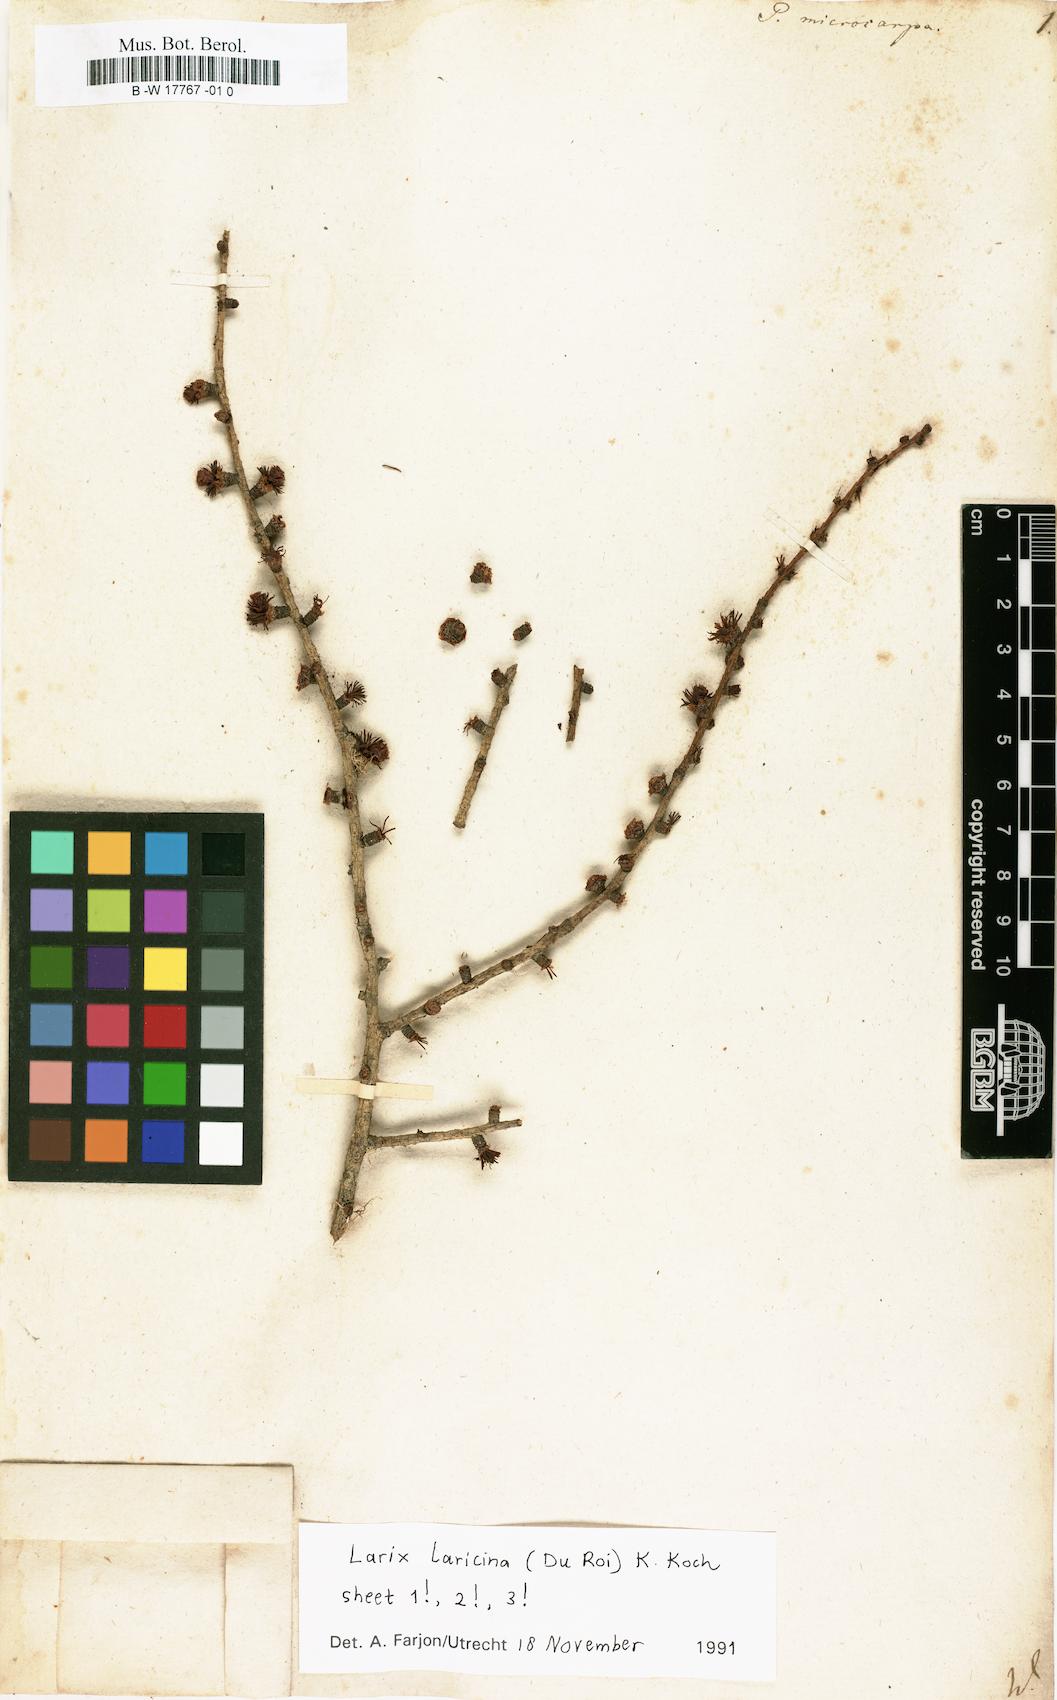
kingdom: Plantae
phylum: Tracheophyta
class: Pinopsida
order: Pinales
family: Pinaceae
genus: Larix
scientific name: Larix laricina
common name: American larch
